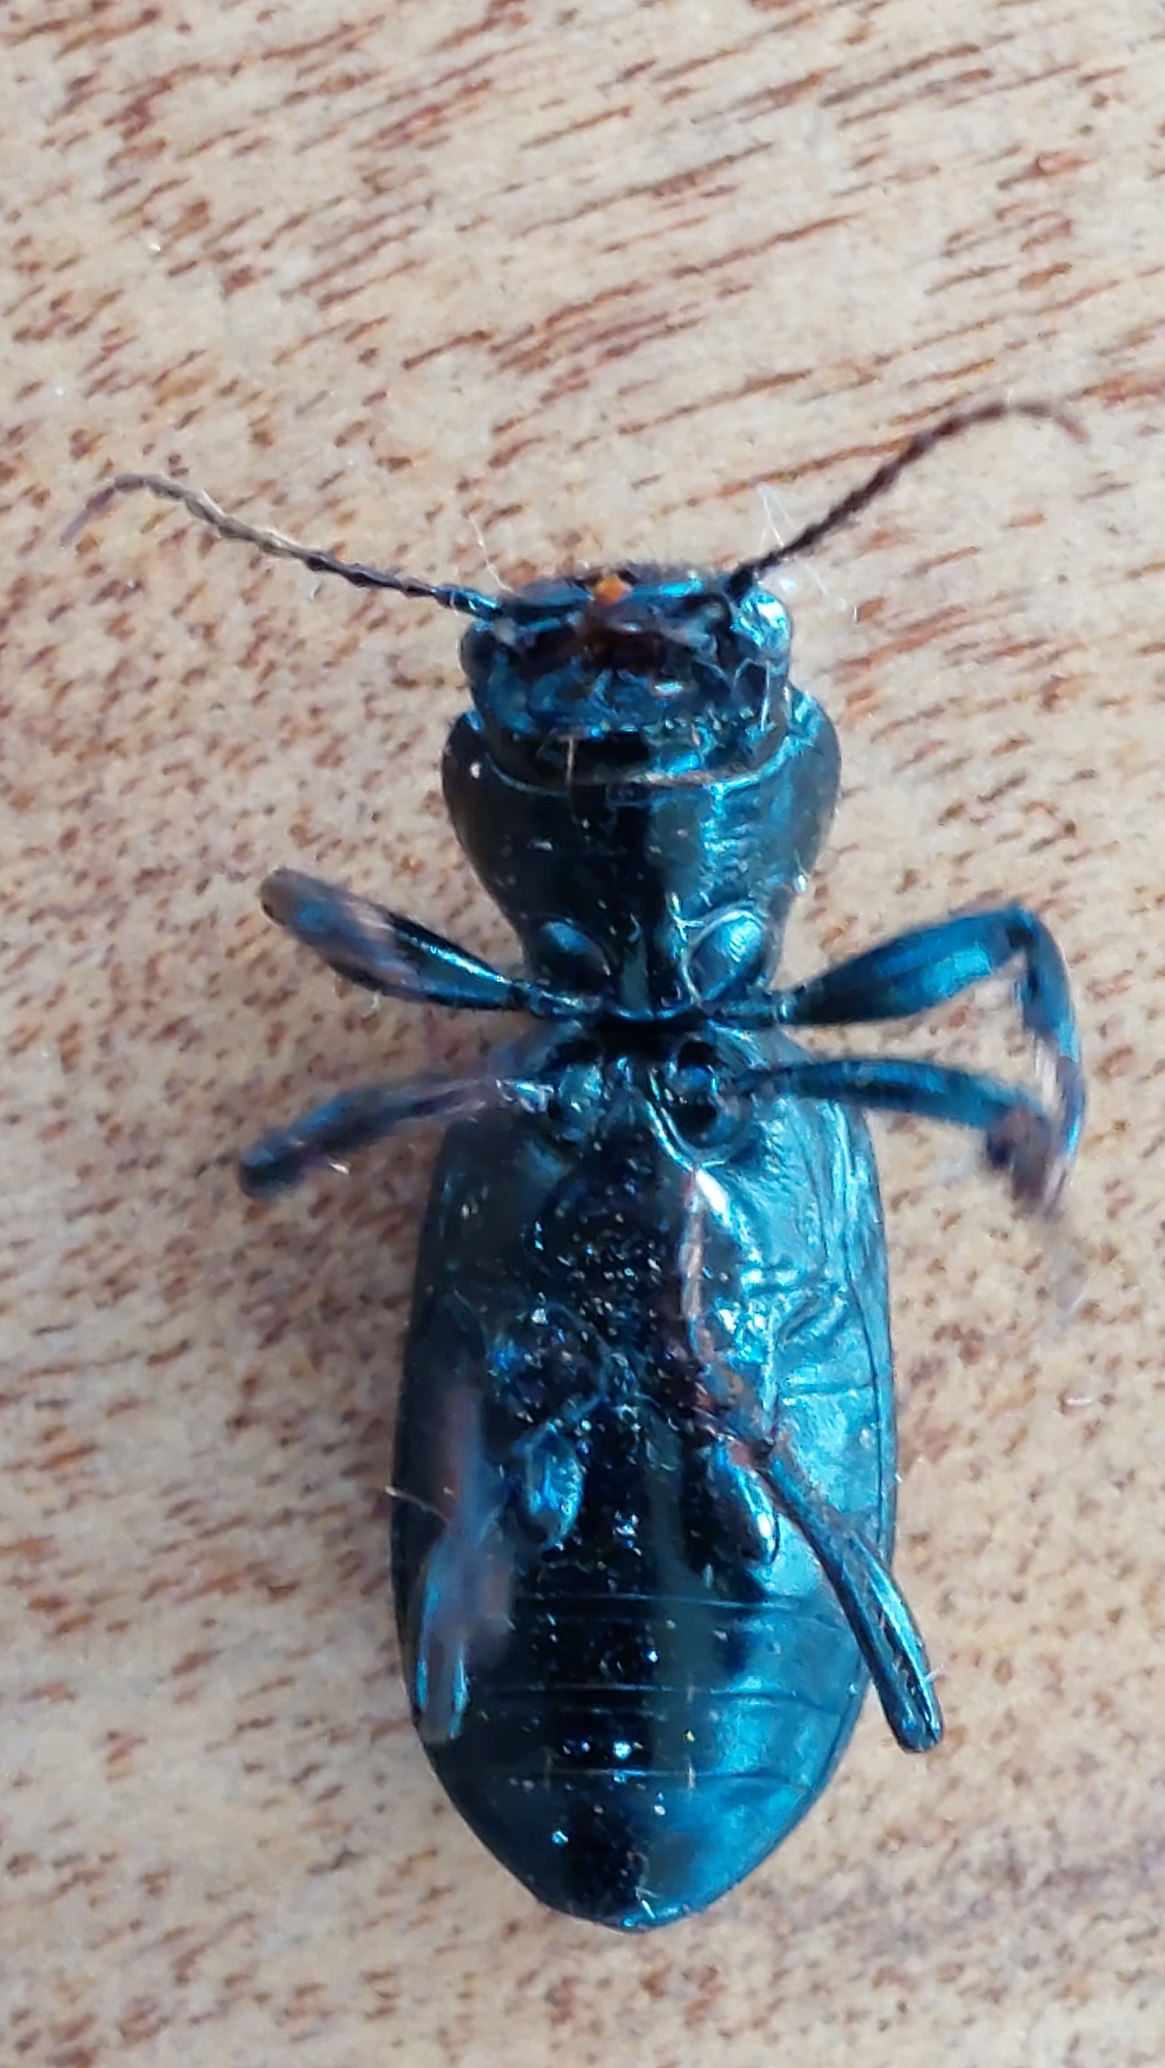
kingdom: Animalia
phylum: Arthropoda
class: Insecta
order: Coleoptera
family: Carabidae
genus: Broscus
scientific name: Broscus cephalotes
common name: Sandgraver
